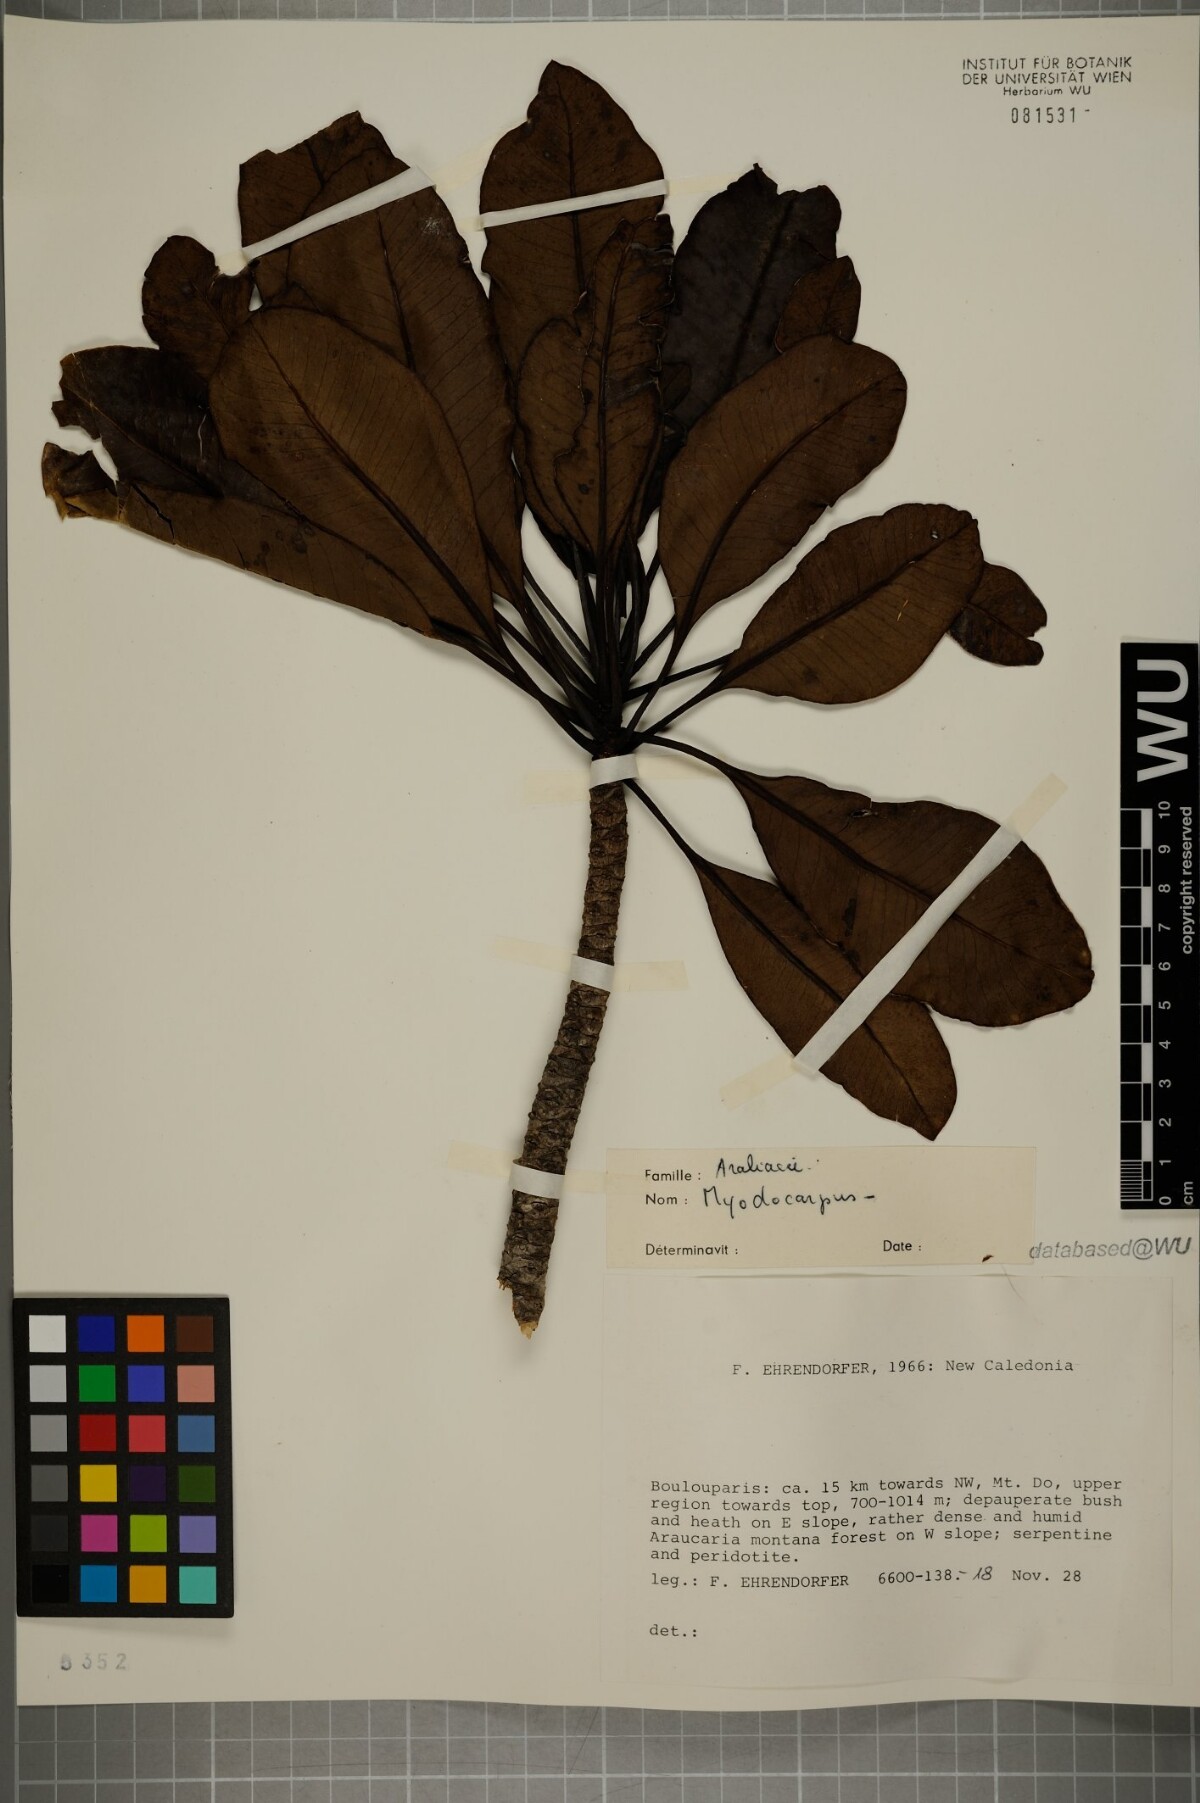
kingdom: Plantae
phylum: Tracheophyta
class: Magnoliopsida
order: Apiales
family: Myodocarpaceae
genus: Myodocarpus
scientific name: Myodocarpus
